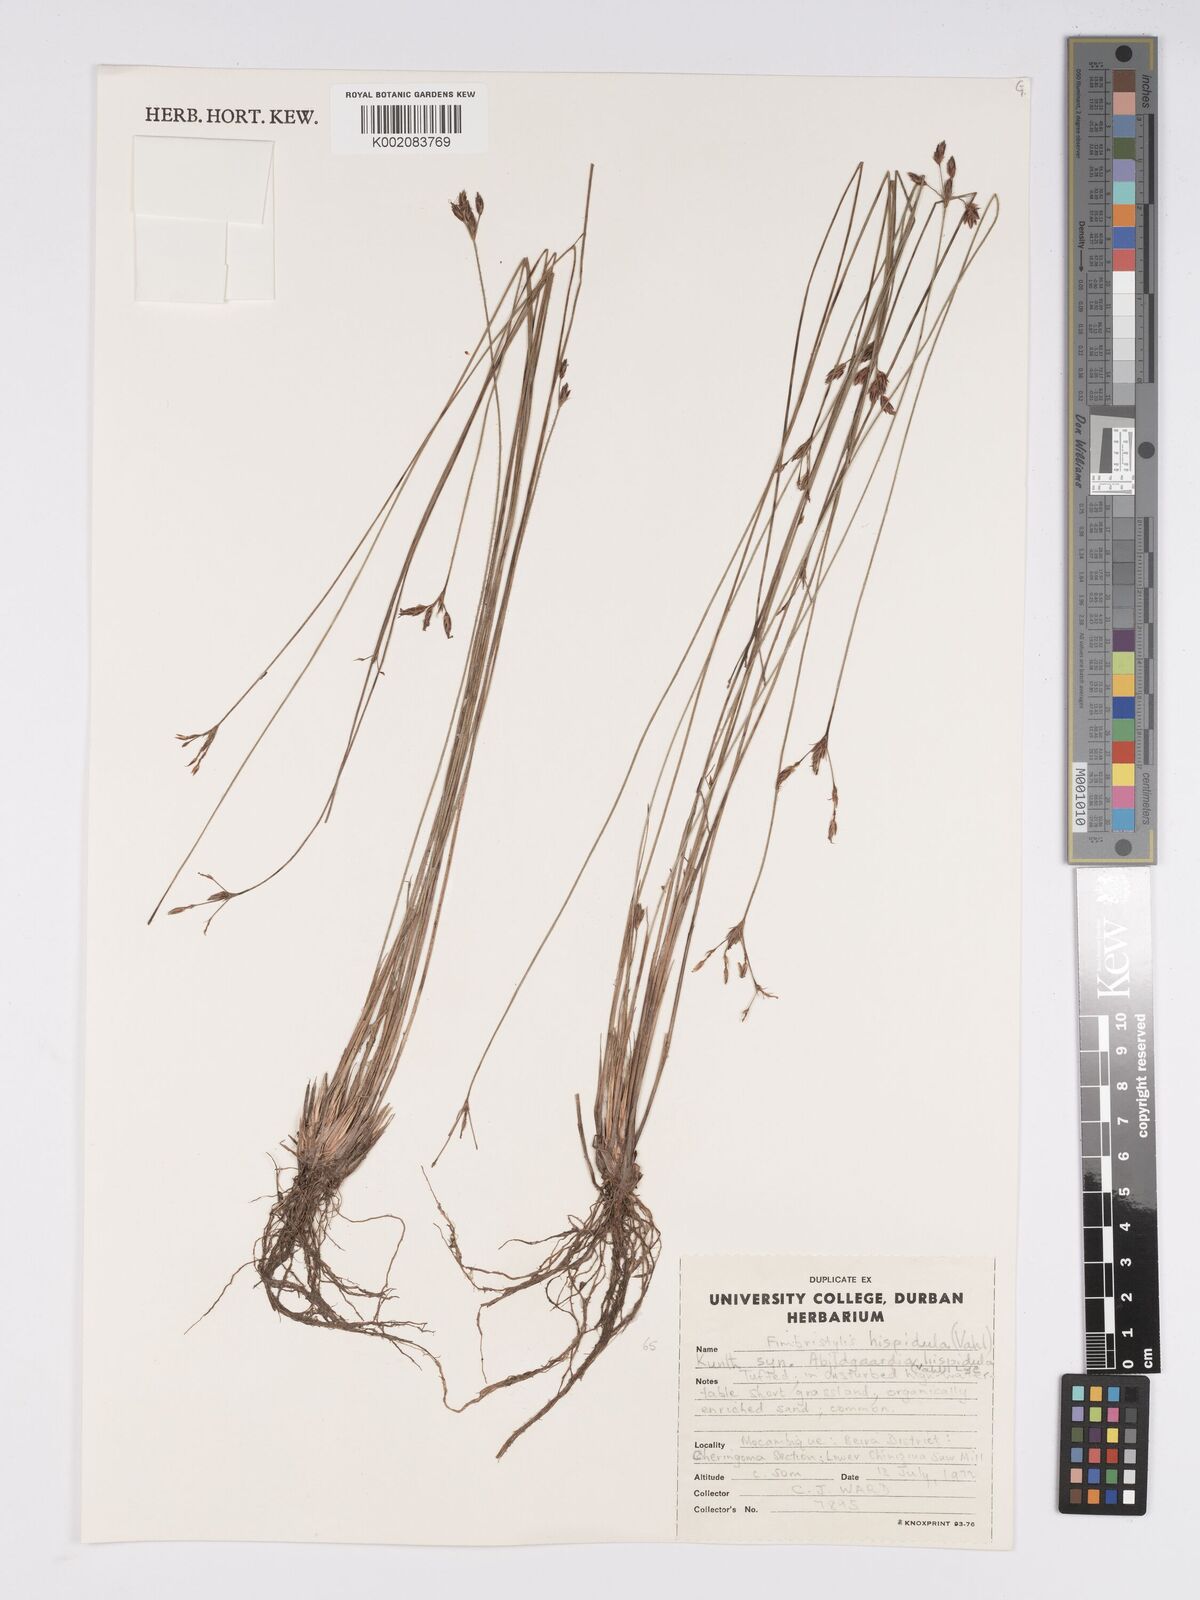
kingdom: Plantae
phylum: Tracheophyta
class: Liliopsida
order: Poales
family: Cyperaceae
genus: Bulbostylis
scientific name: Bulbostylis hispidula
